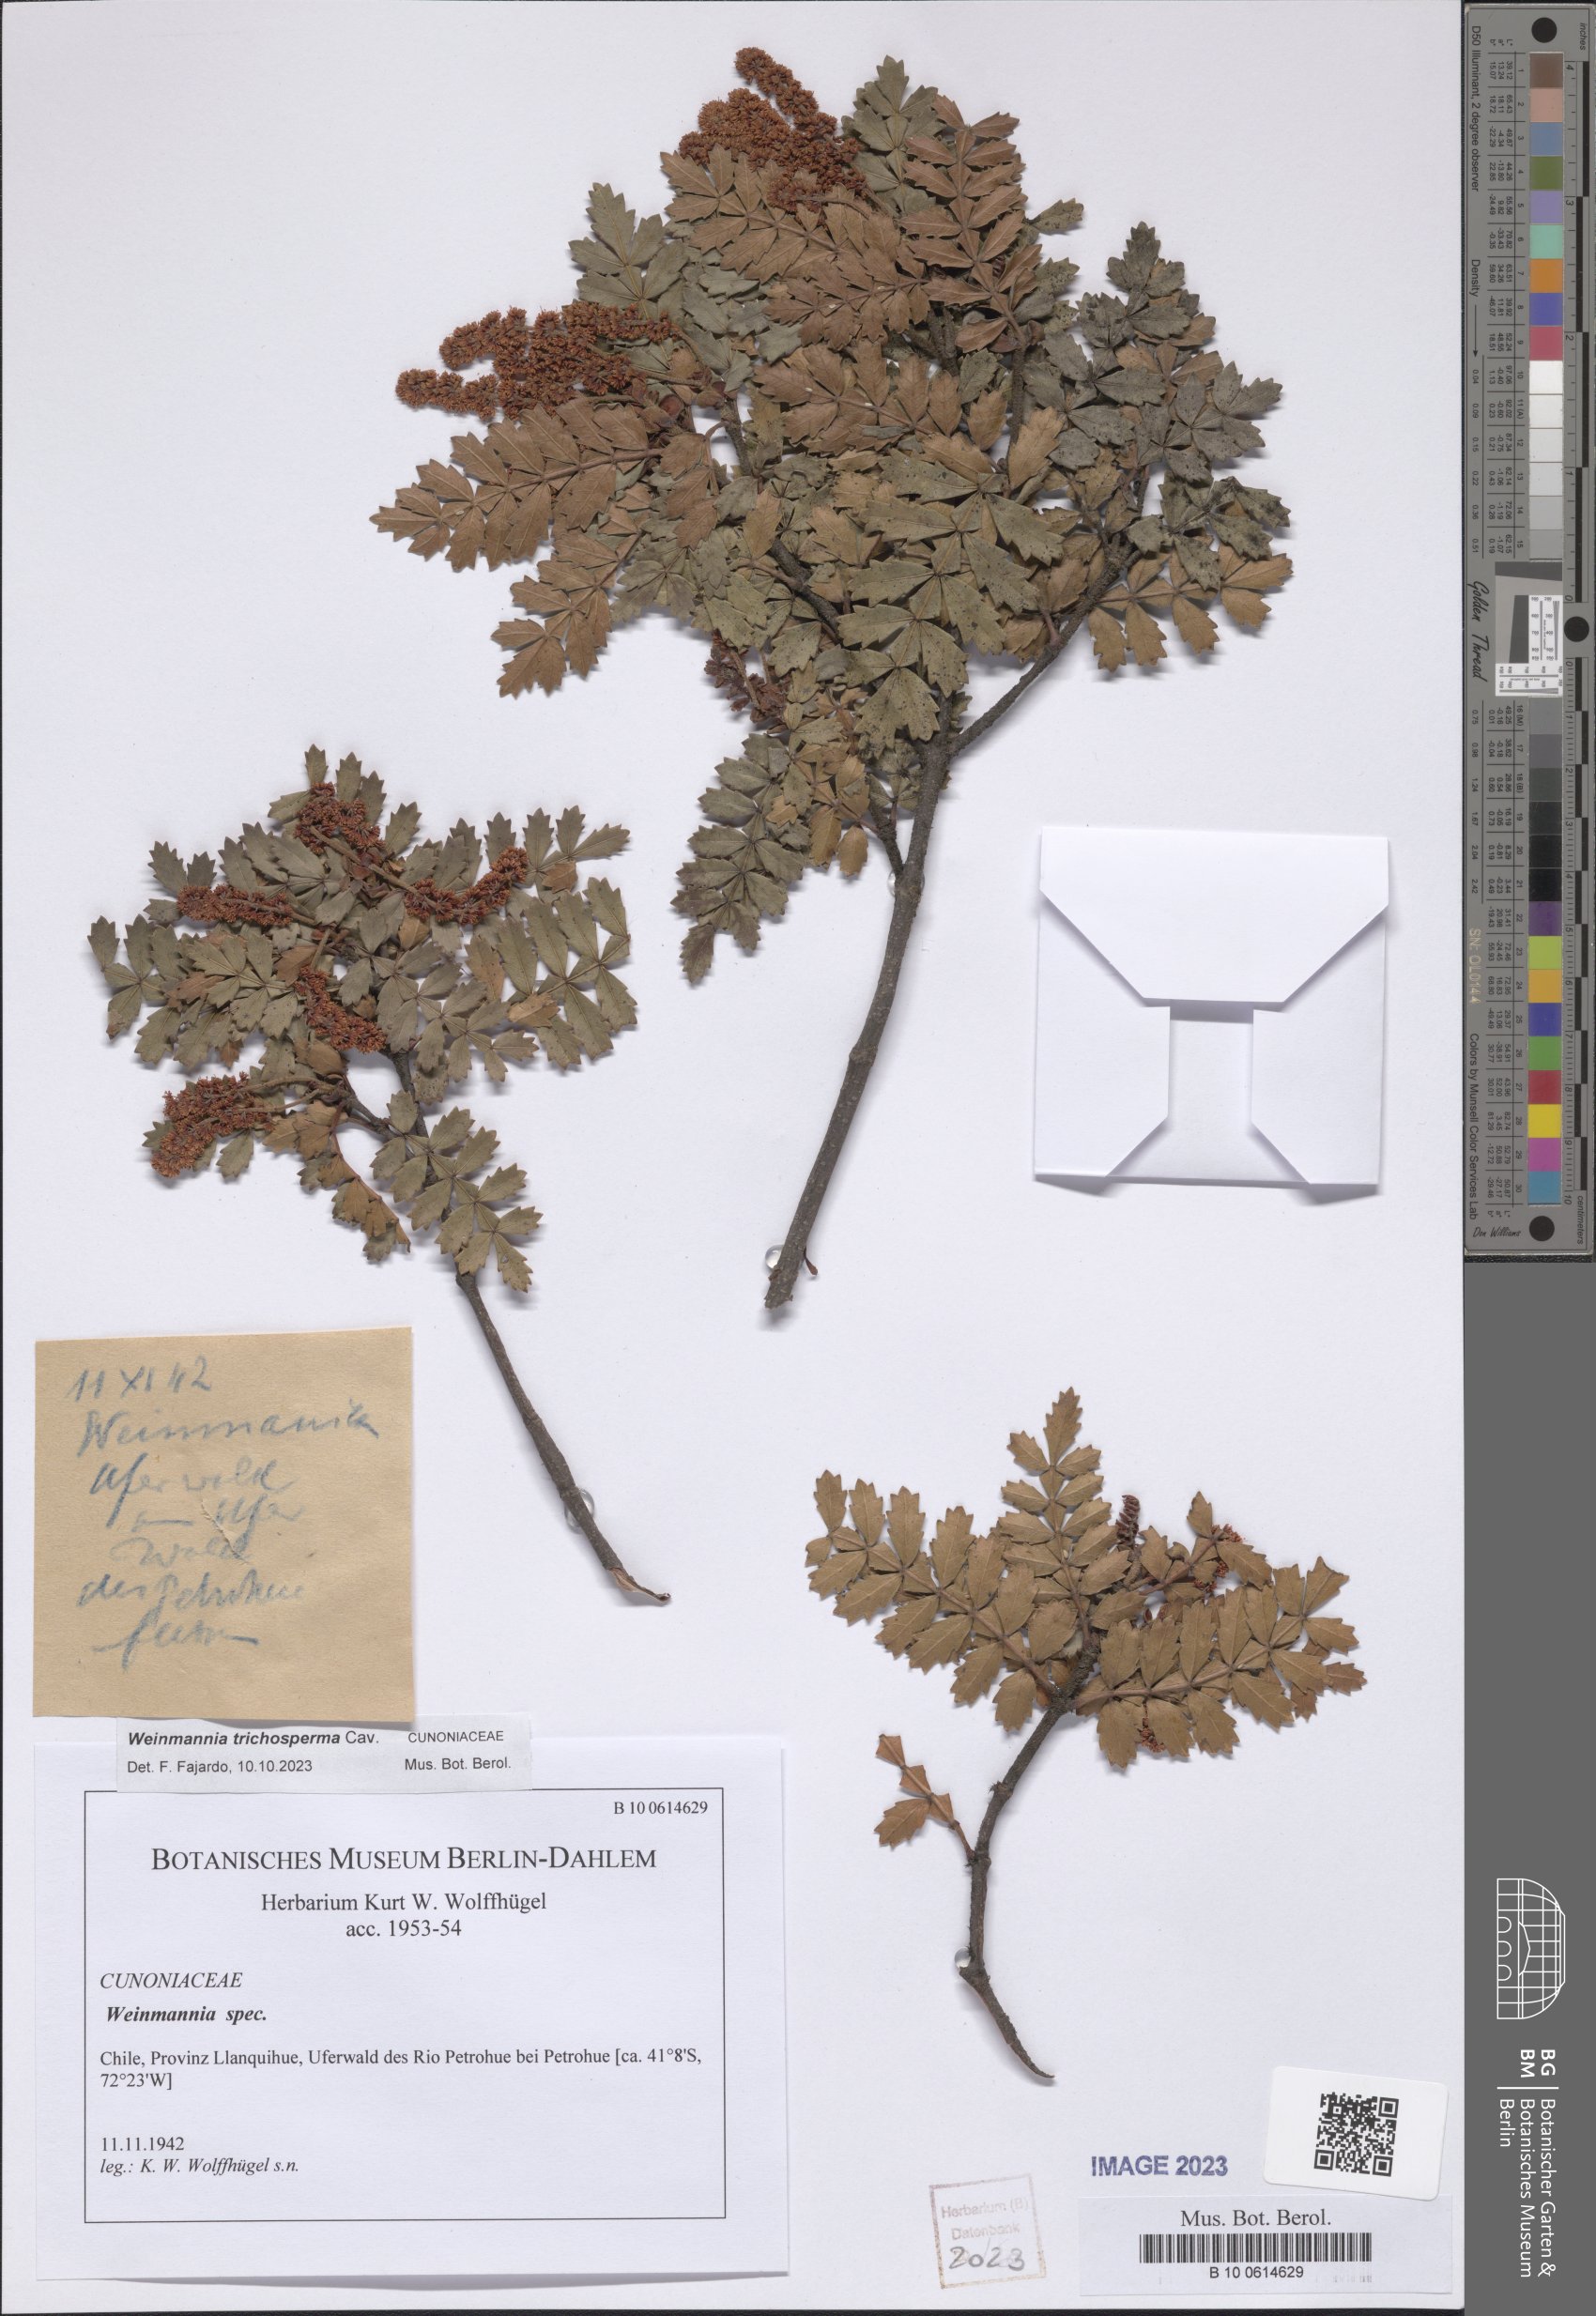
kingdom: Plantae
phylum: Tracheophyta
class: Magnoliopsida
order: Oxalidales
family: Cunoniaceae
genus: Weinmannia
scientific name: Weinmannia trichosperma
